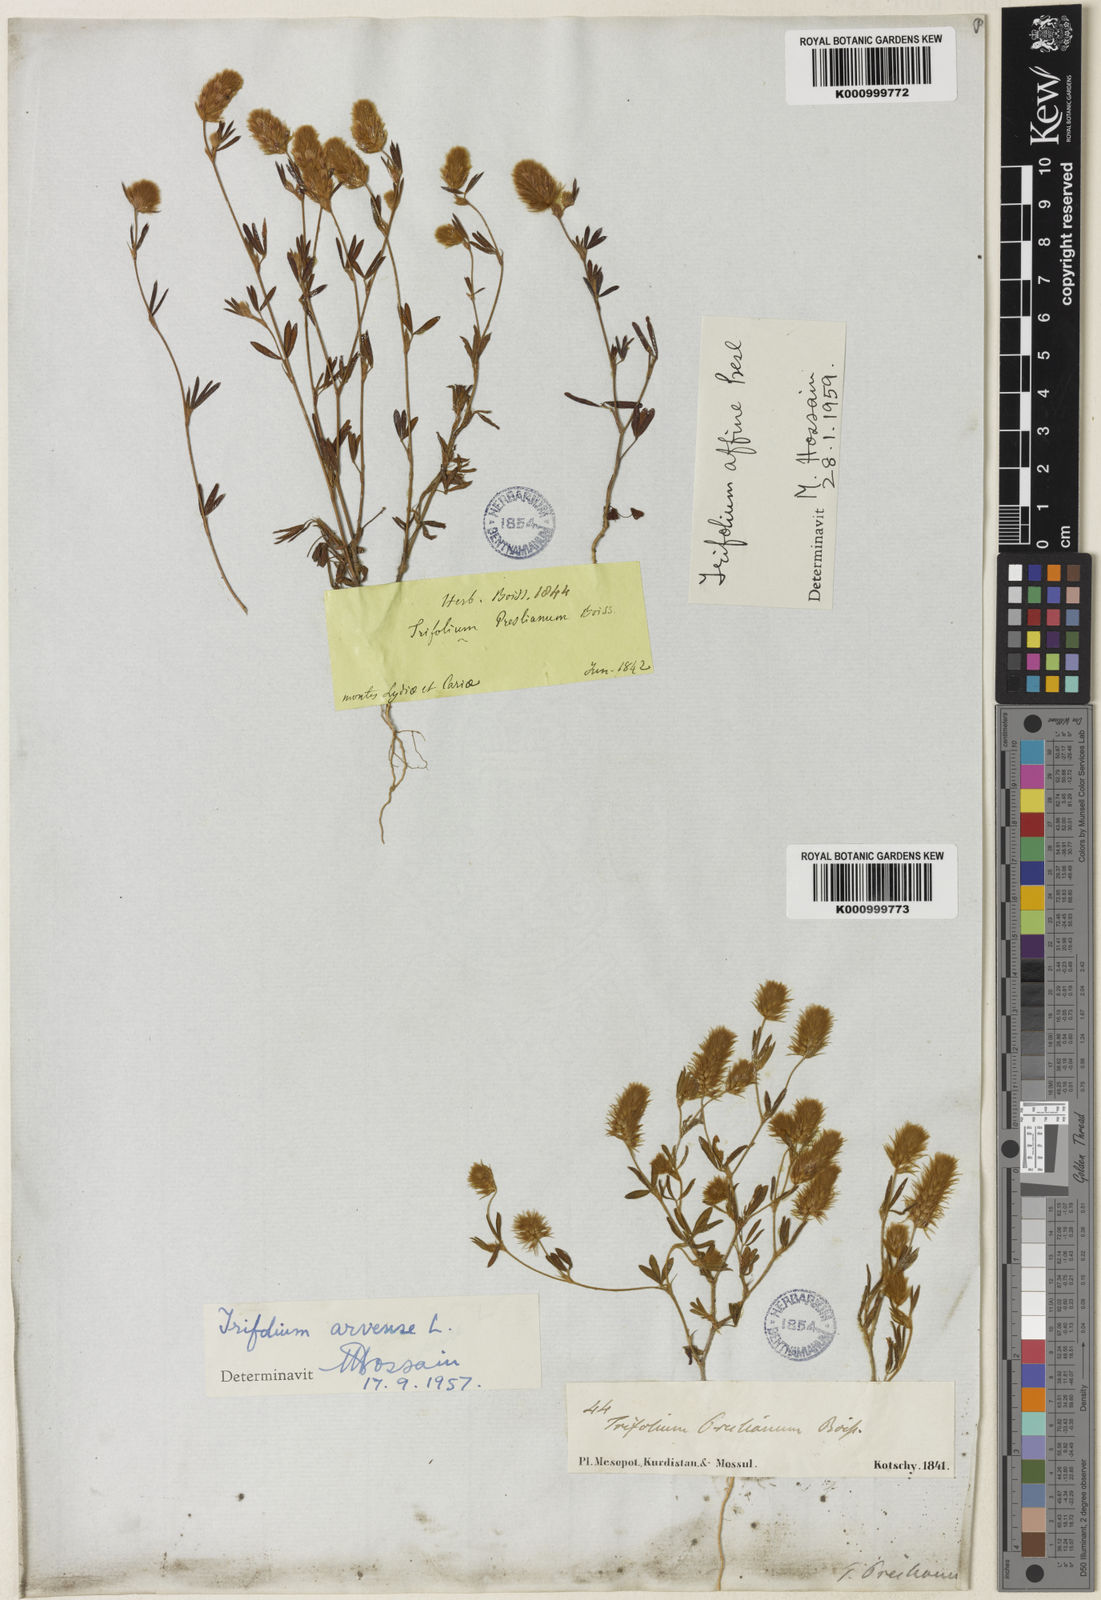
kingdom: Plantae
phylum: Tracheophyta
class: Magnoliopsida
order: Fabales
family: Fabaceae
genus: Trifolium
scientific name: Trifolium arvense
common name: Hare's-foot clover
